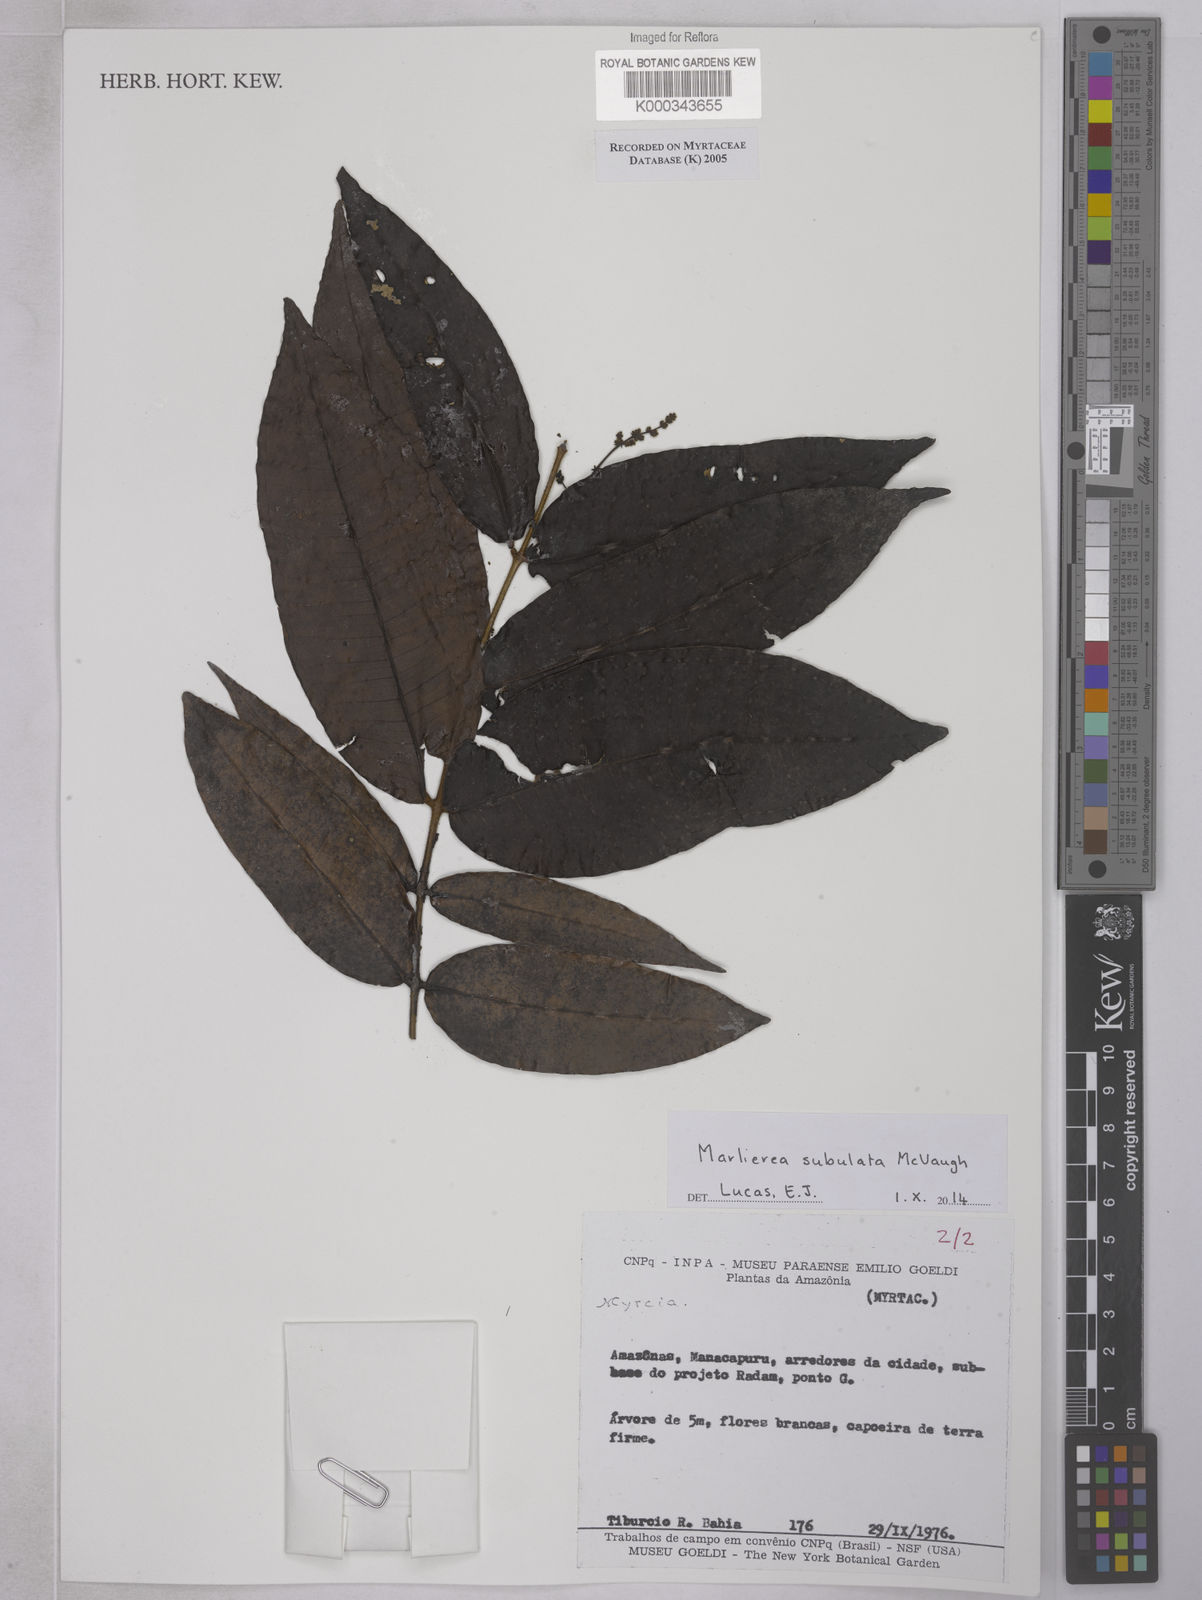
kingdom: Plantae
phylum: Tracheophyta
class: Magnoliopsida
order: Myrtales
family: Myrtaceae
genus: Myrcia
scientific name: Myrcia
